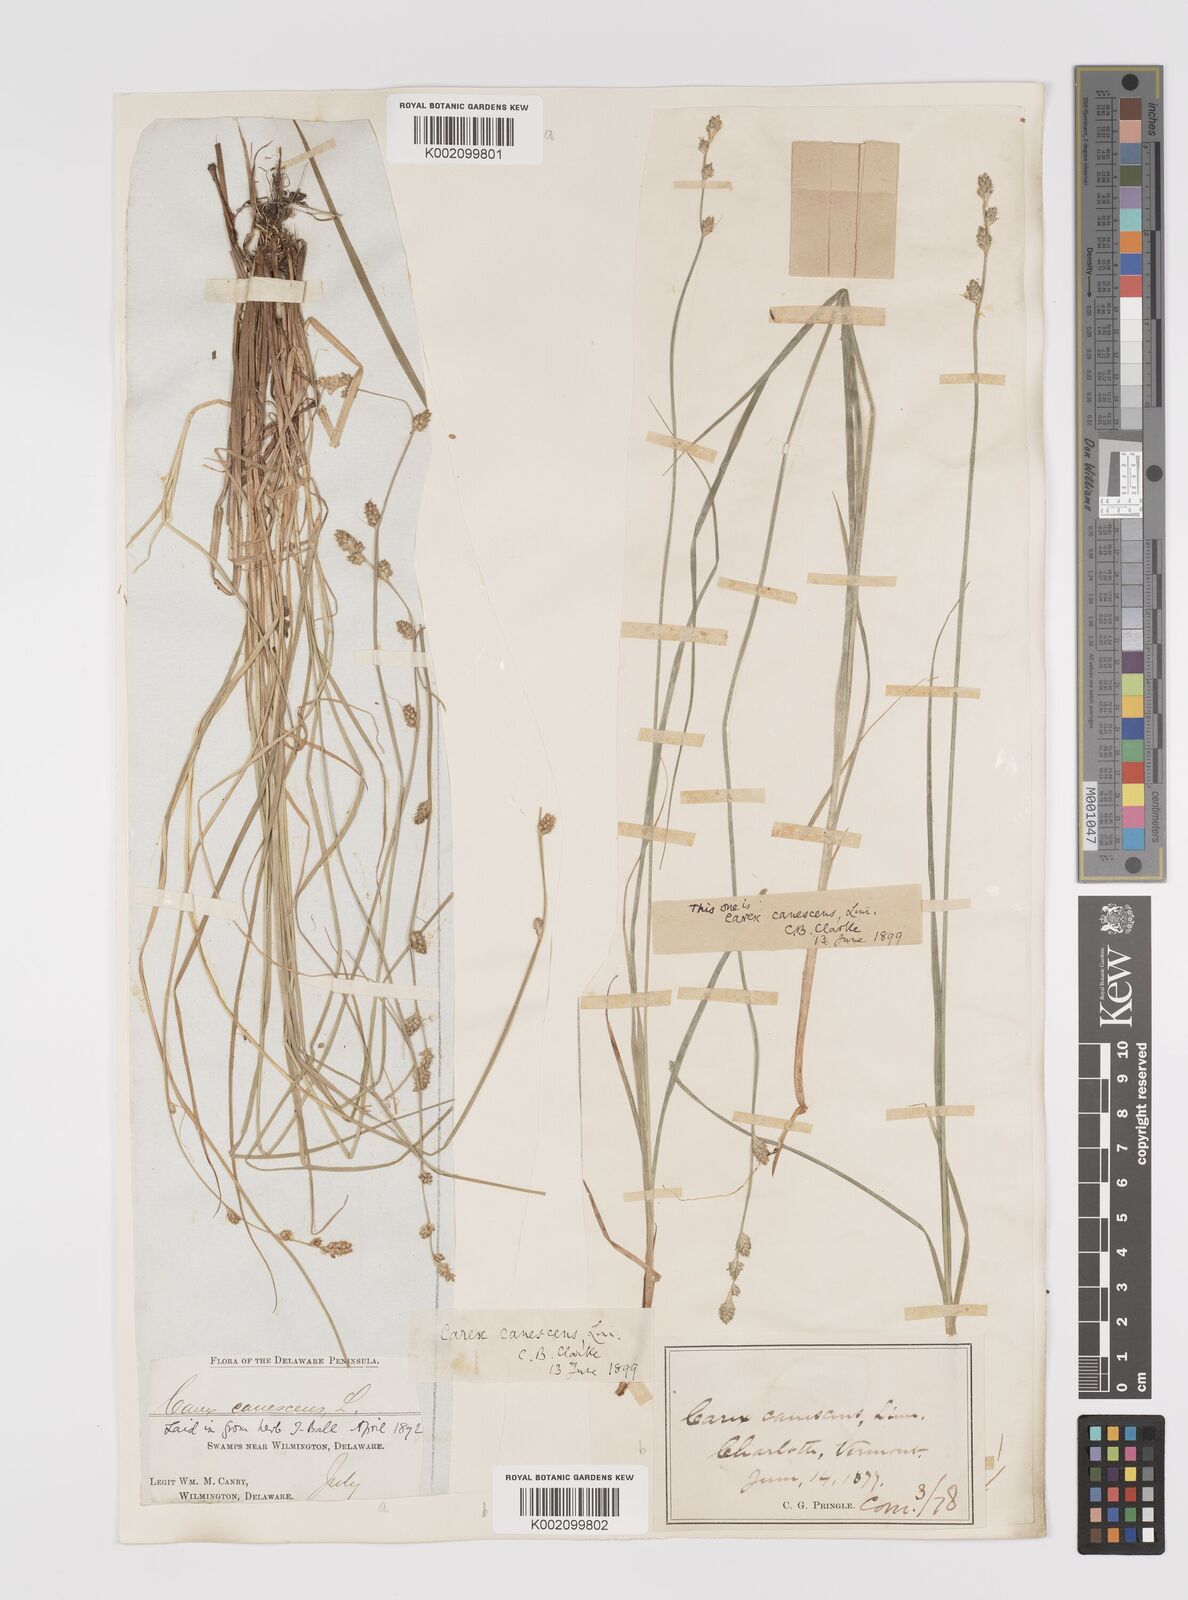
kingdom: Plantae
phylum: Tracheophyta
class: Liliopsida
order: Poales
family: Cyperaceae
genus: Carex
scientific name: Carex curta
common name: White sedge
